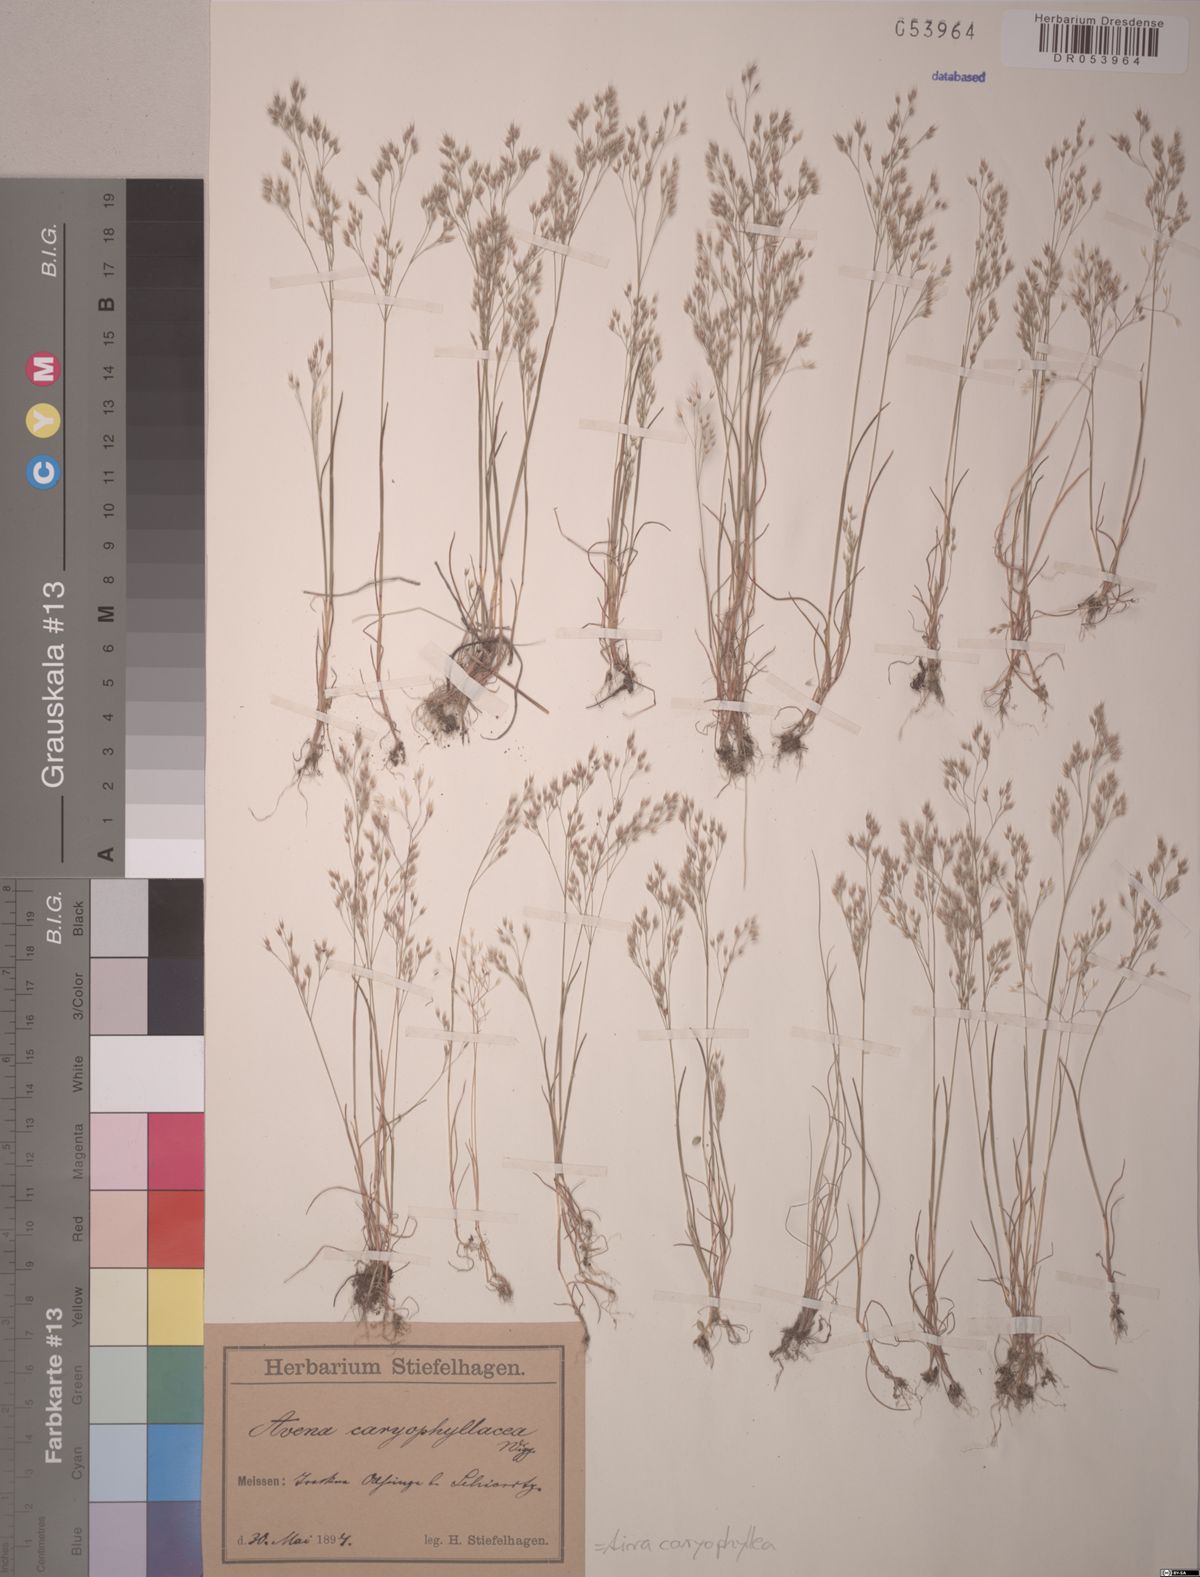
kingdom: Plantae
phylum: Tracheophyta
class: Liliopsida
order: Poales
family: Poaceae
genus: Aira
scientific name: Aira caryophyllea
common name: Silver hairgrass
